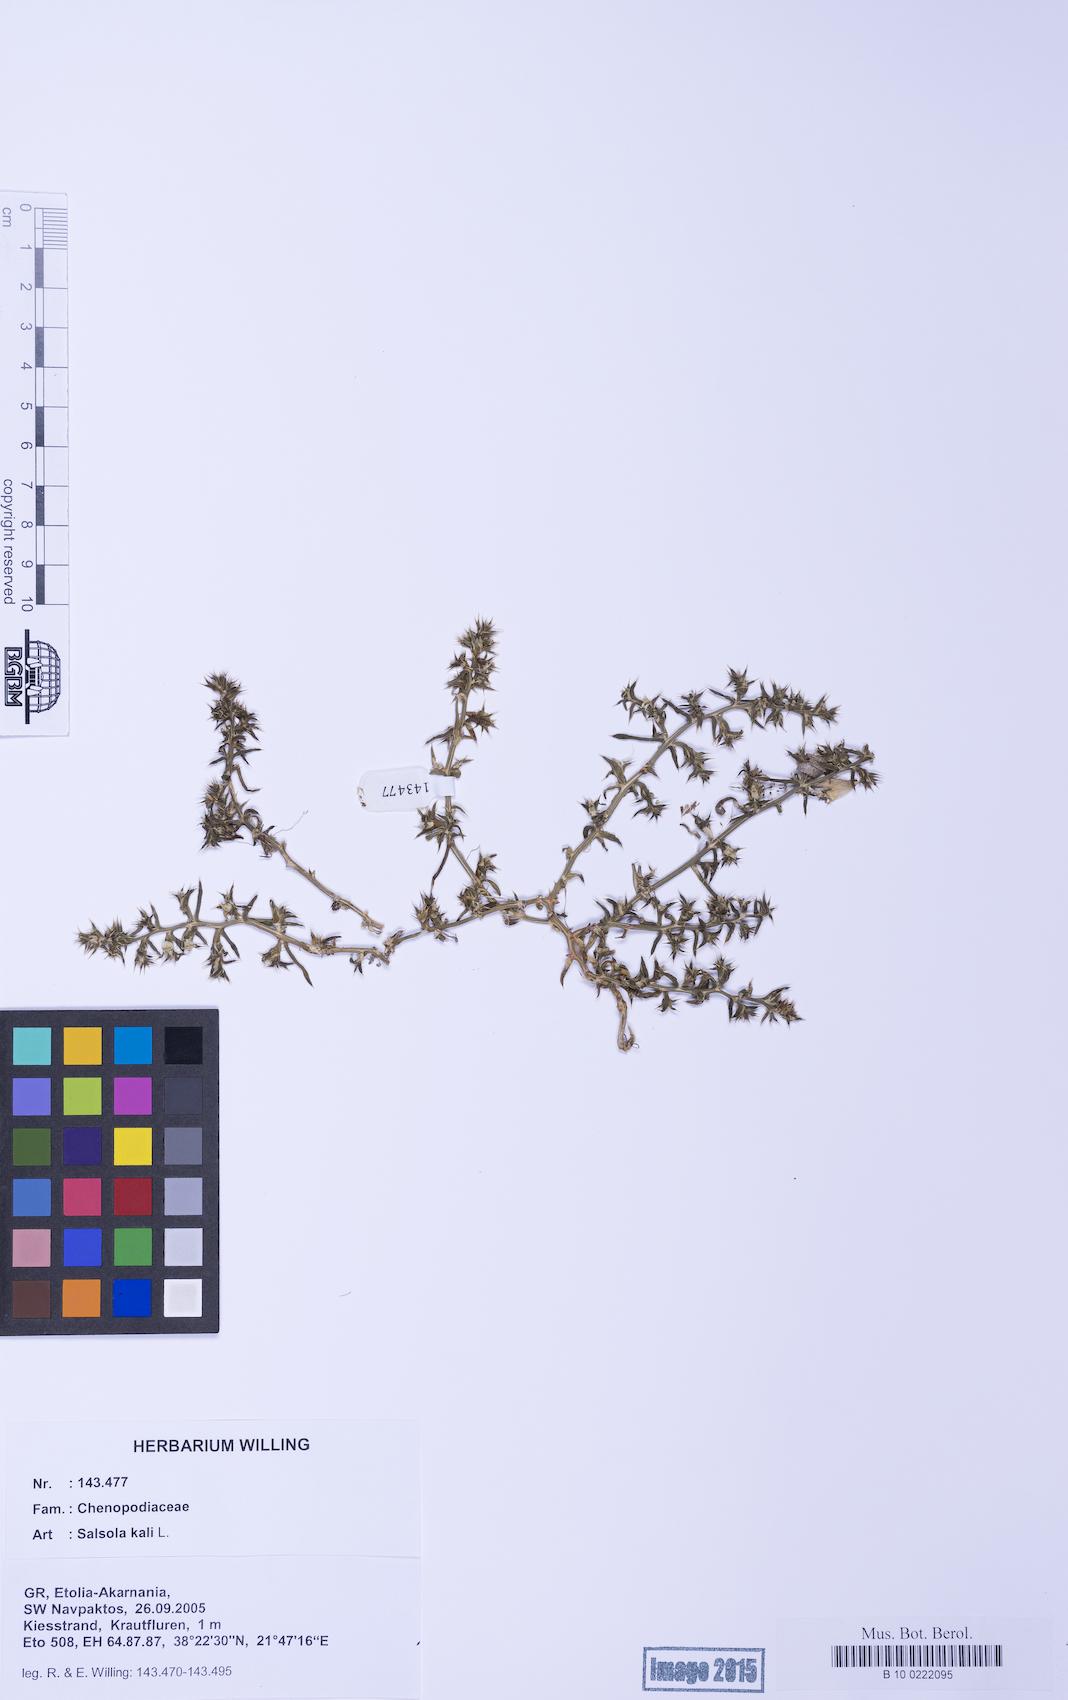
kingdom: Plantae
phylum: Tracheophyta
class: Magnoliopsida
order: Caryophyllales
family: Amaranthaceae
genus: Salsola
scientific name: Salsola kali
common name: Saltwort
